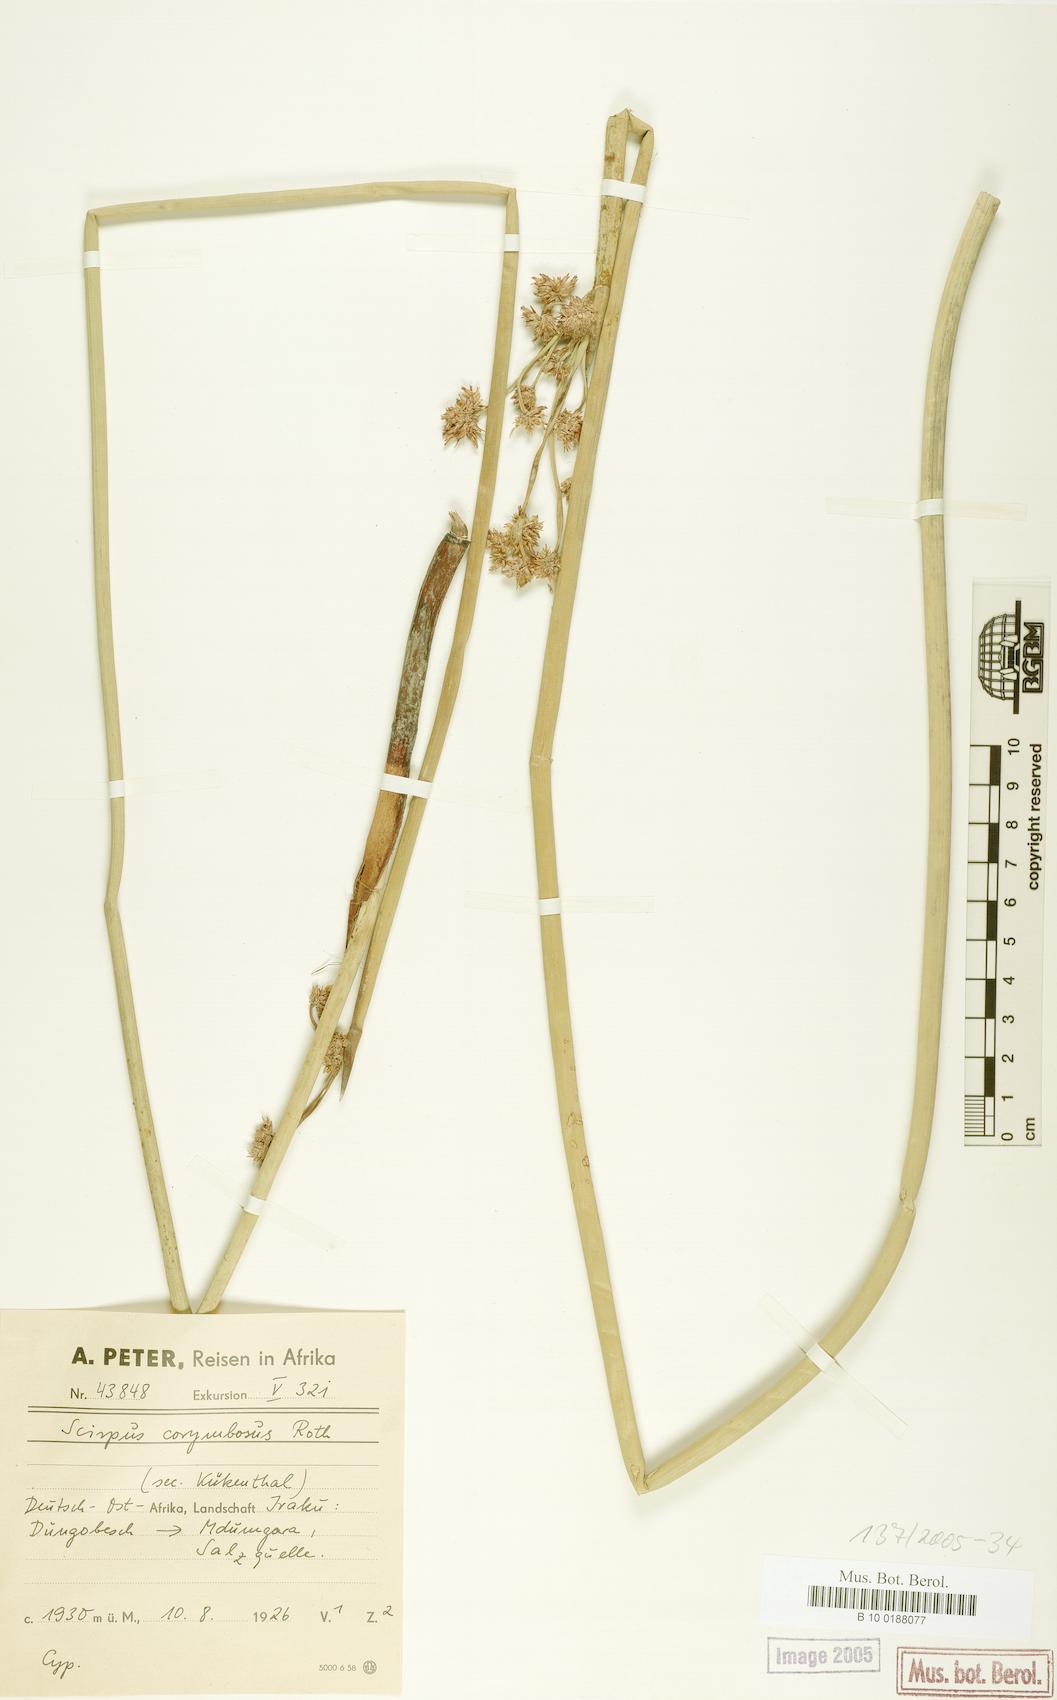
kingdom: Plantae
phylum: Tracheophyta
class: Liliopsida
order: Poales
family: Cyperaceae
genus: Schoenoplectiella
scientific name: Schoenoplectiella brachyceras
